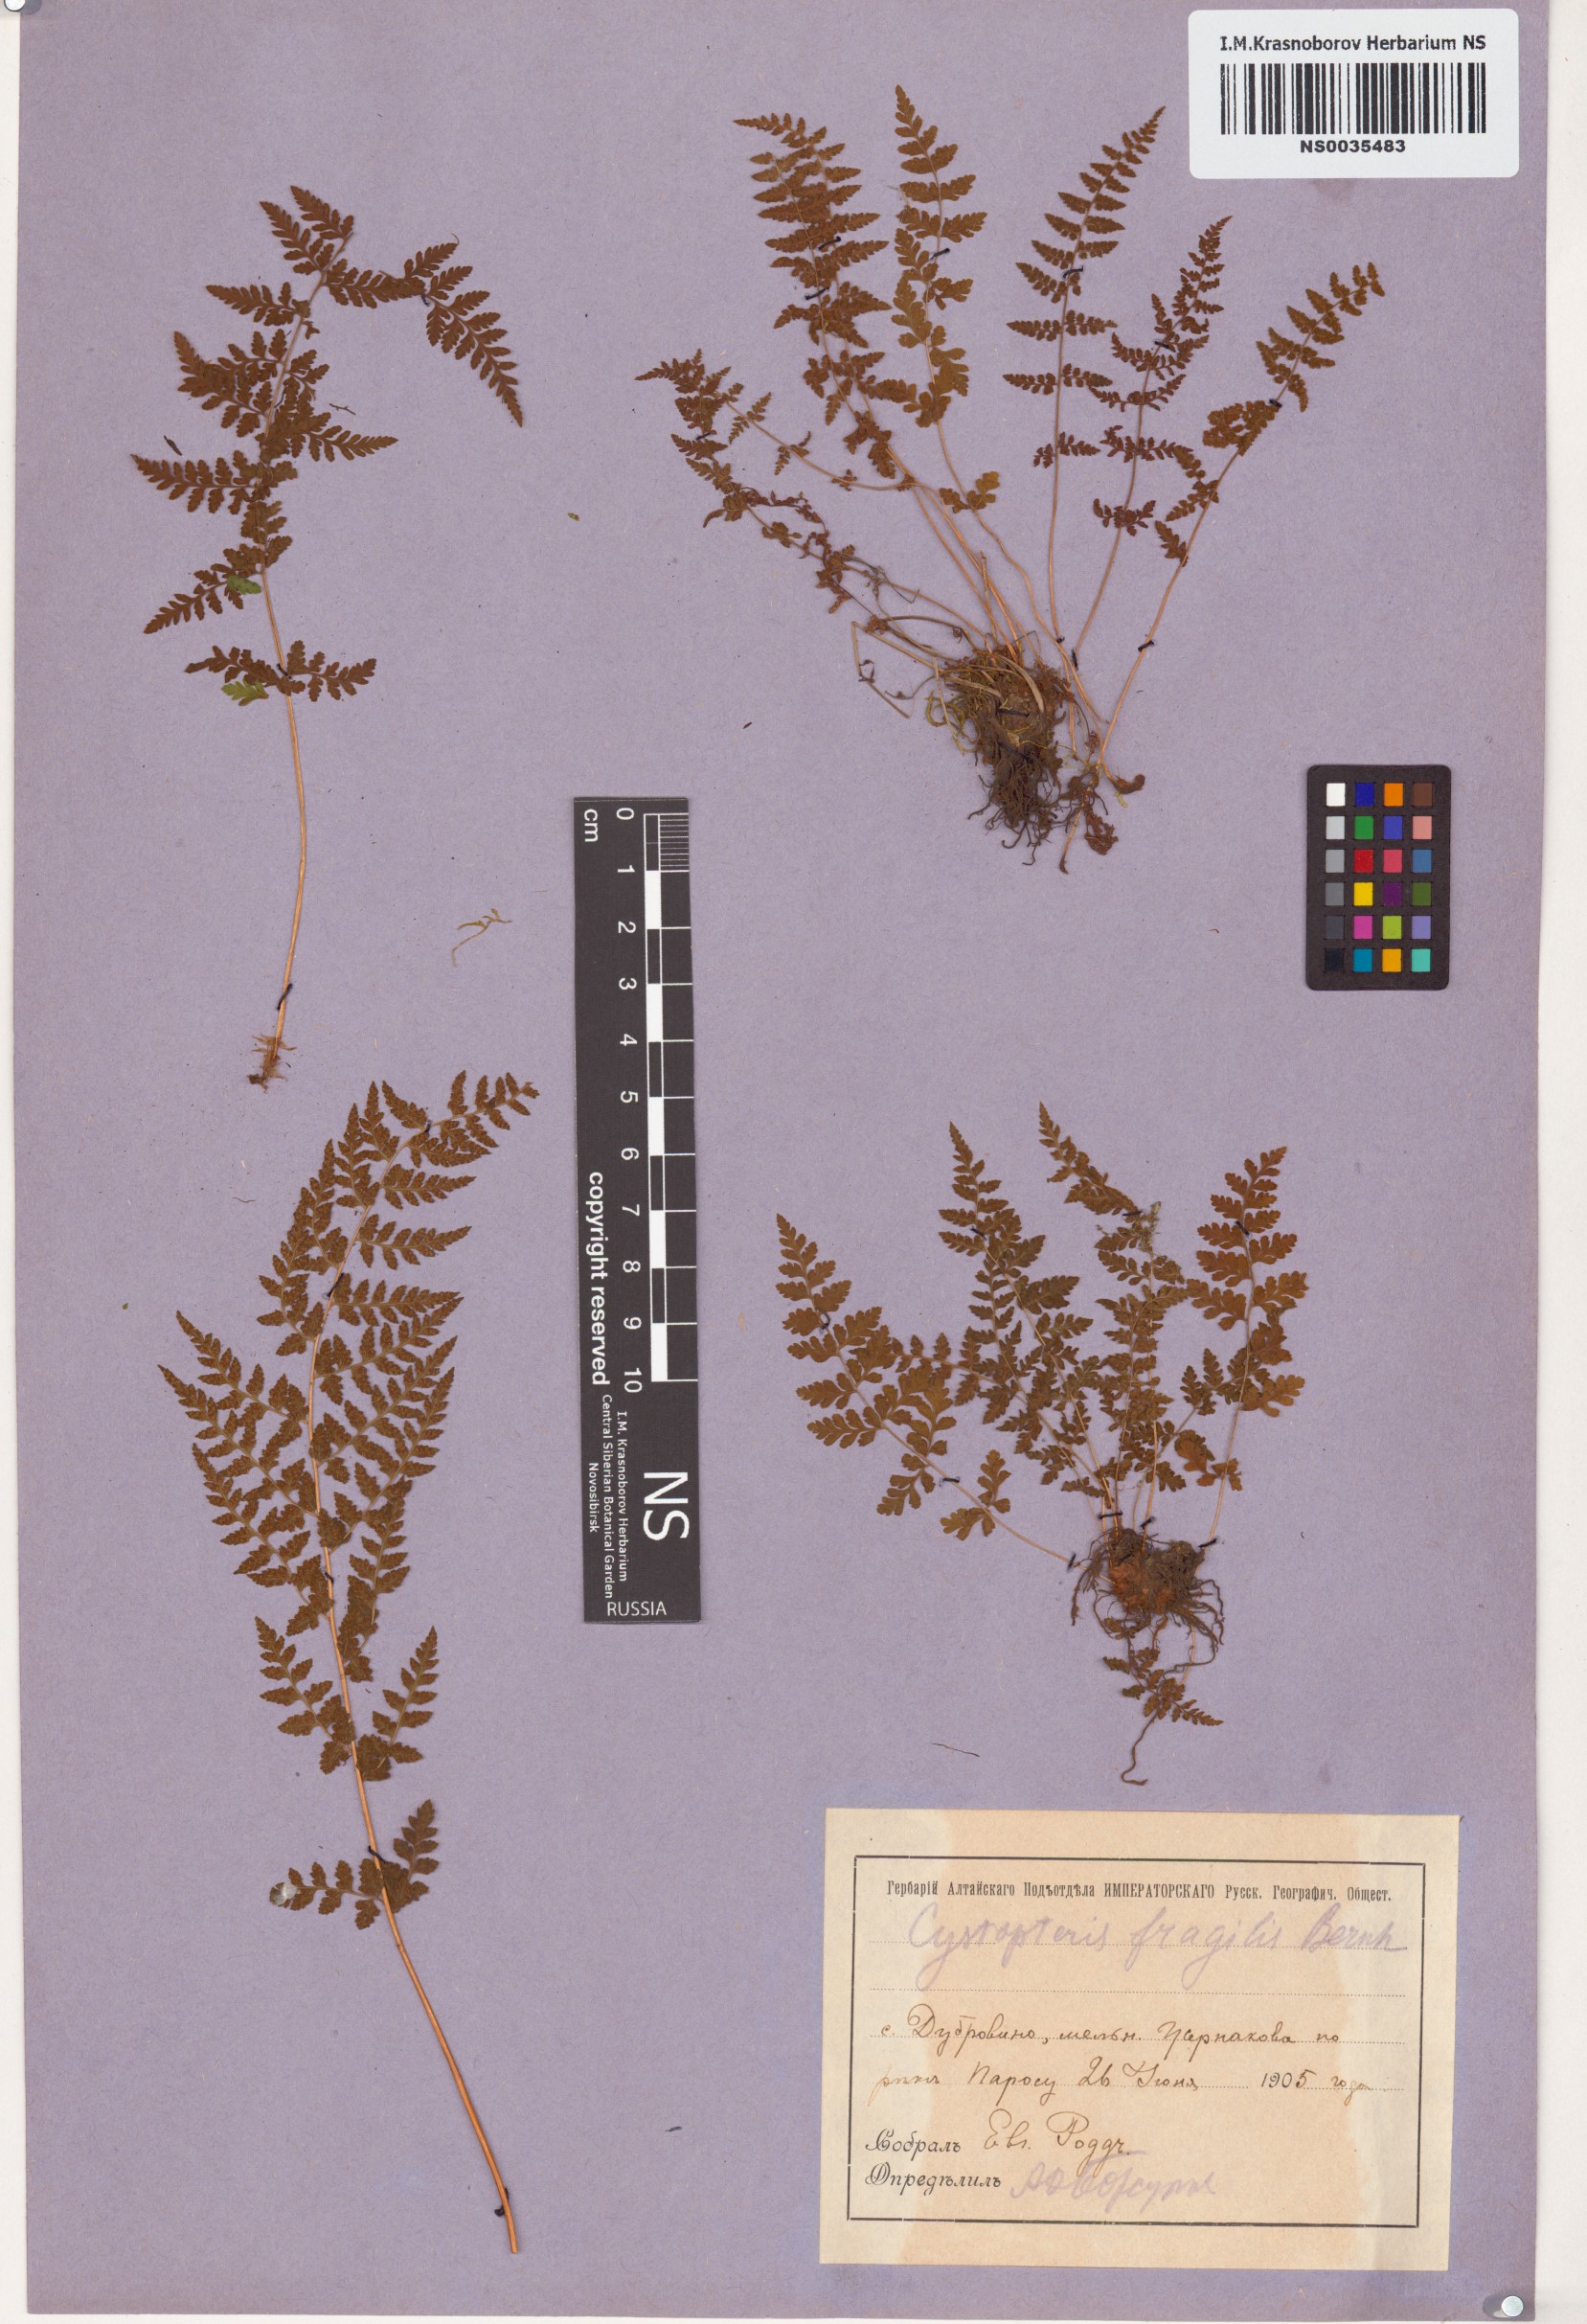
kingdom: Plantae
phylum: Tracheophyta
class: Polypodiopsida
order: Polypodiales
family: Cystopteridaceae
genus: Cystopteris
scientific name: Cystopteris fragilis
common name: Brittle bladder fern
